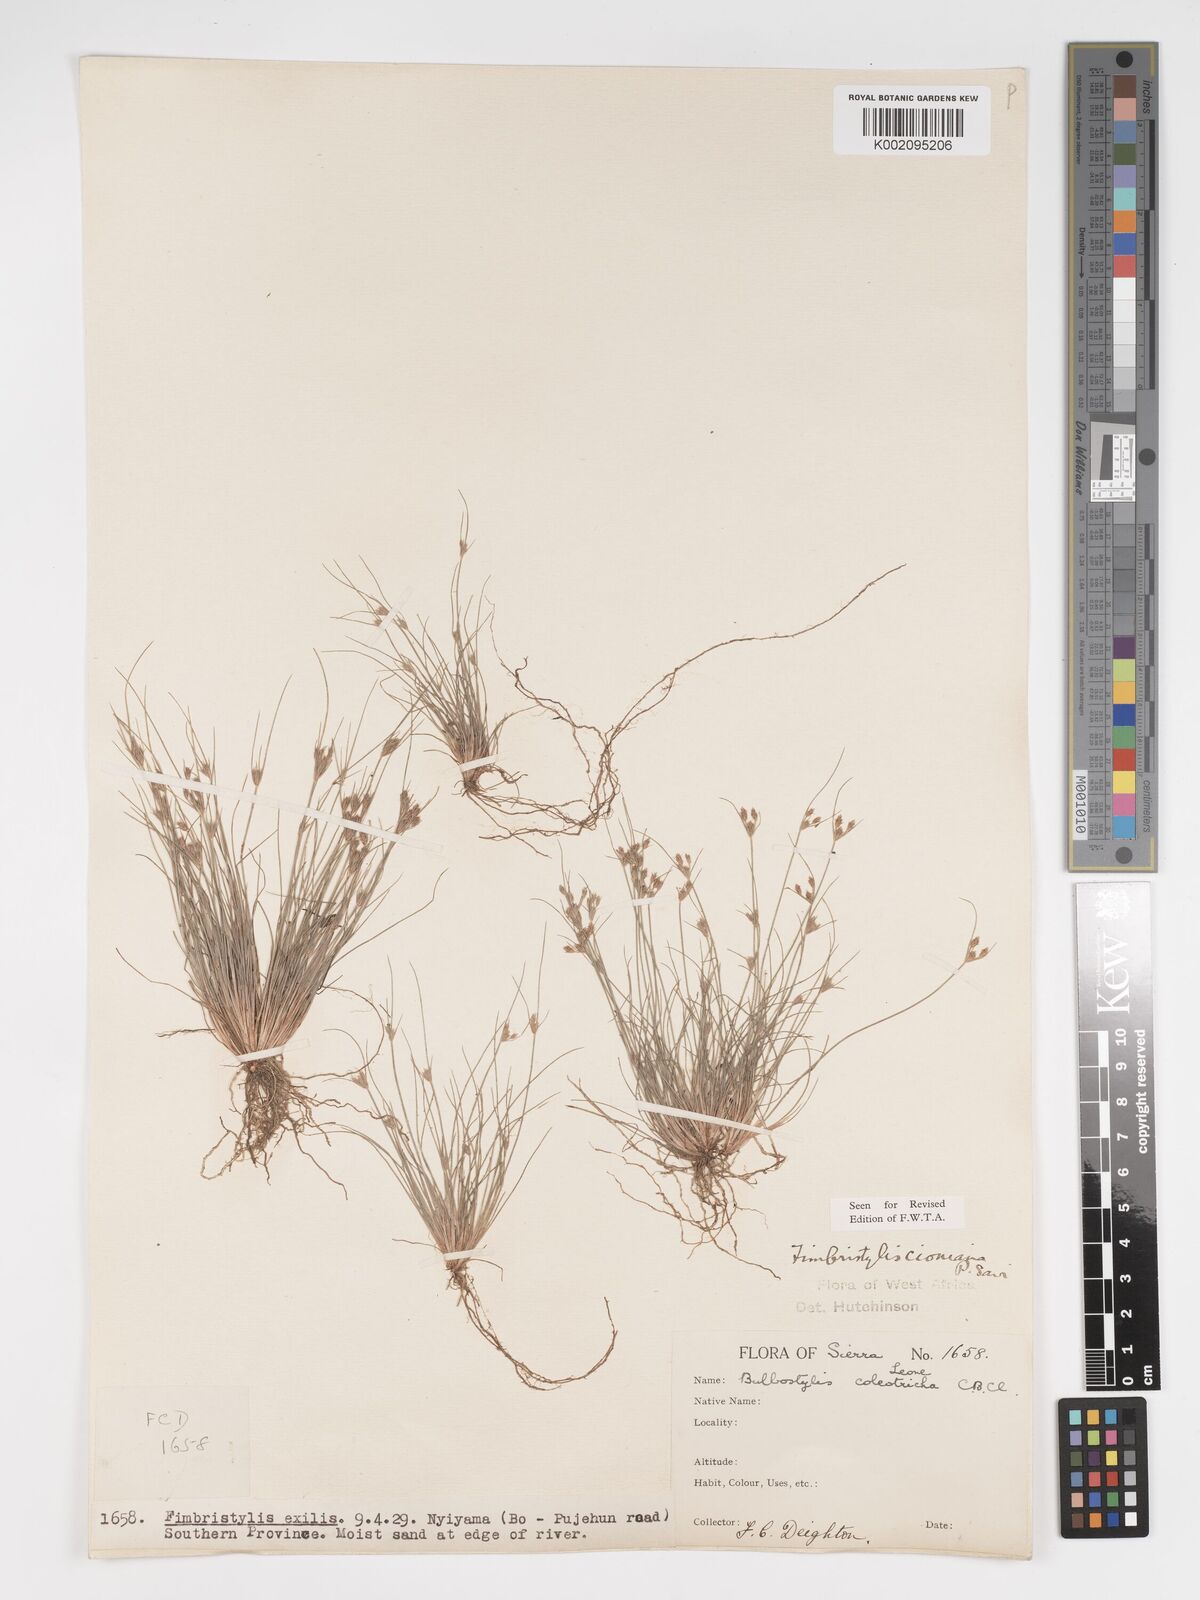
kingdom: Plantae
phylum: Tracheophyta
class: Liliopsida
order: Poales
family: Cyperaceae
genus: Bulbostylis
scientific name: Bulbostylis cioniana
